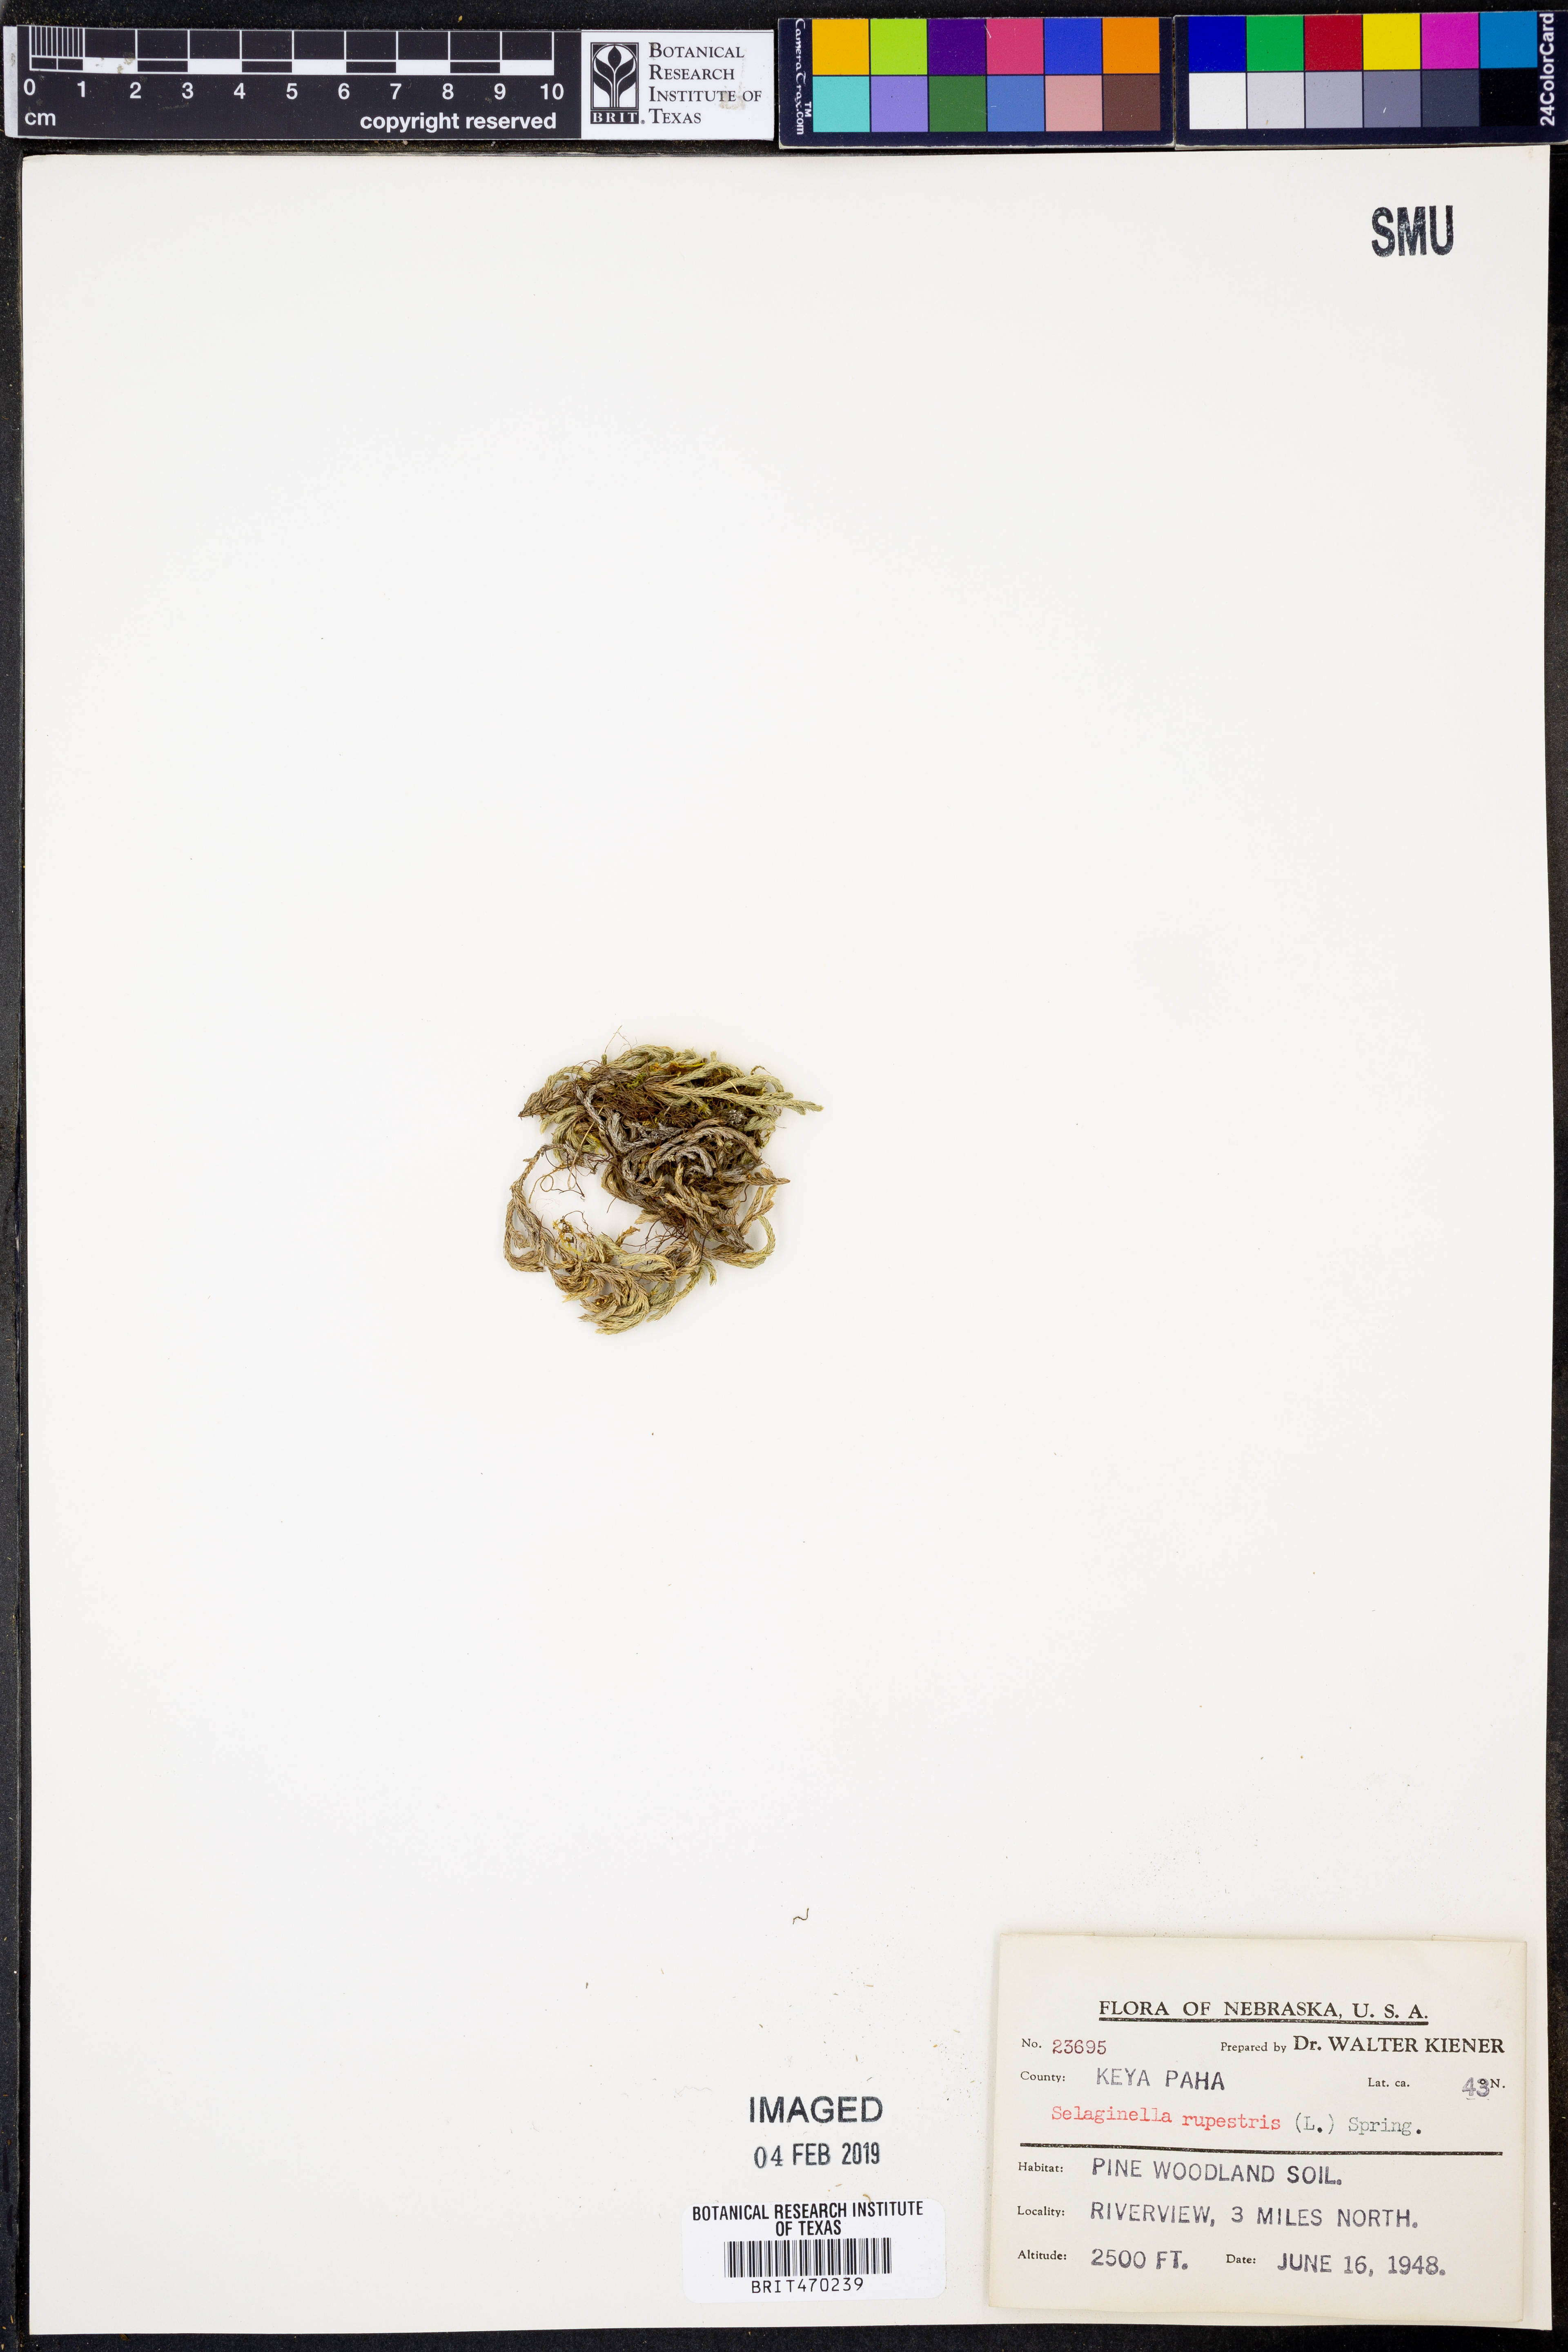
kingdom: Plantae
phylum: Tracheophyta
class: Lycopodiopsida
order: Selaginellales
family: Selaginellaceae
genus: Selaginella
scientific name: Selaginella rupestris
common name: Dwarf spikemoss
